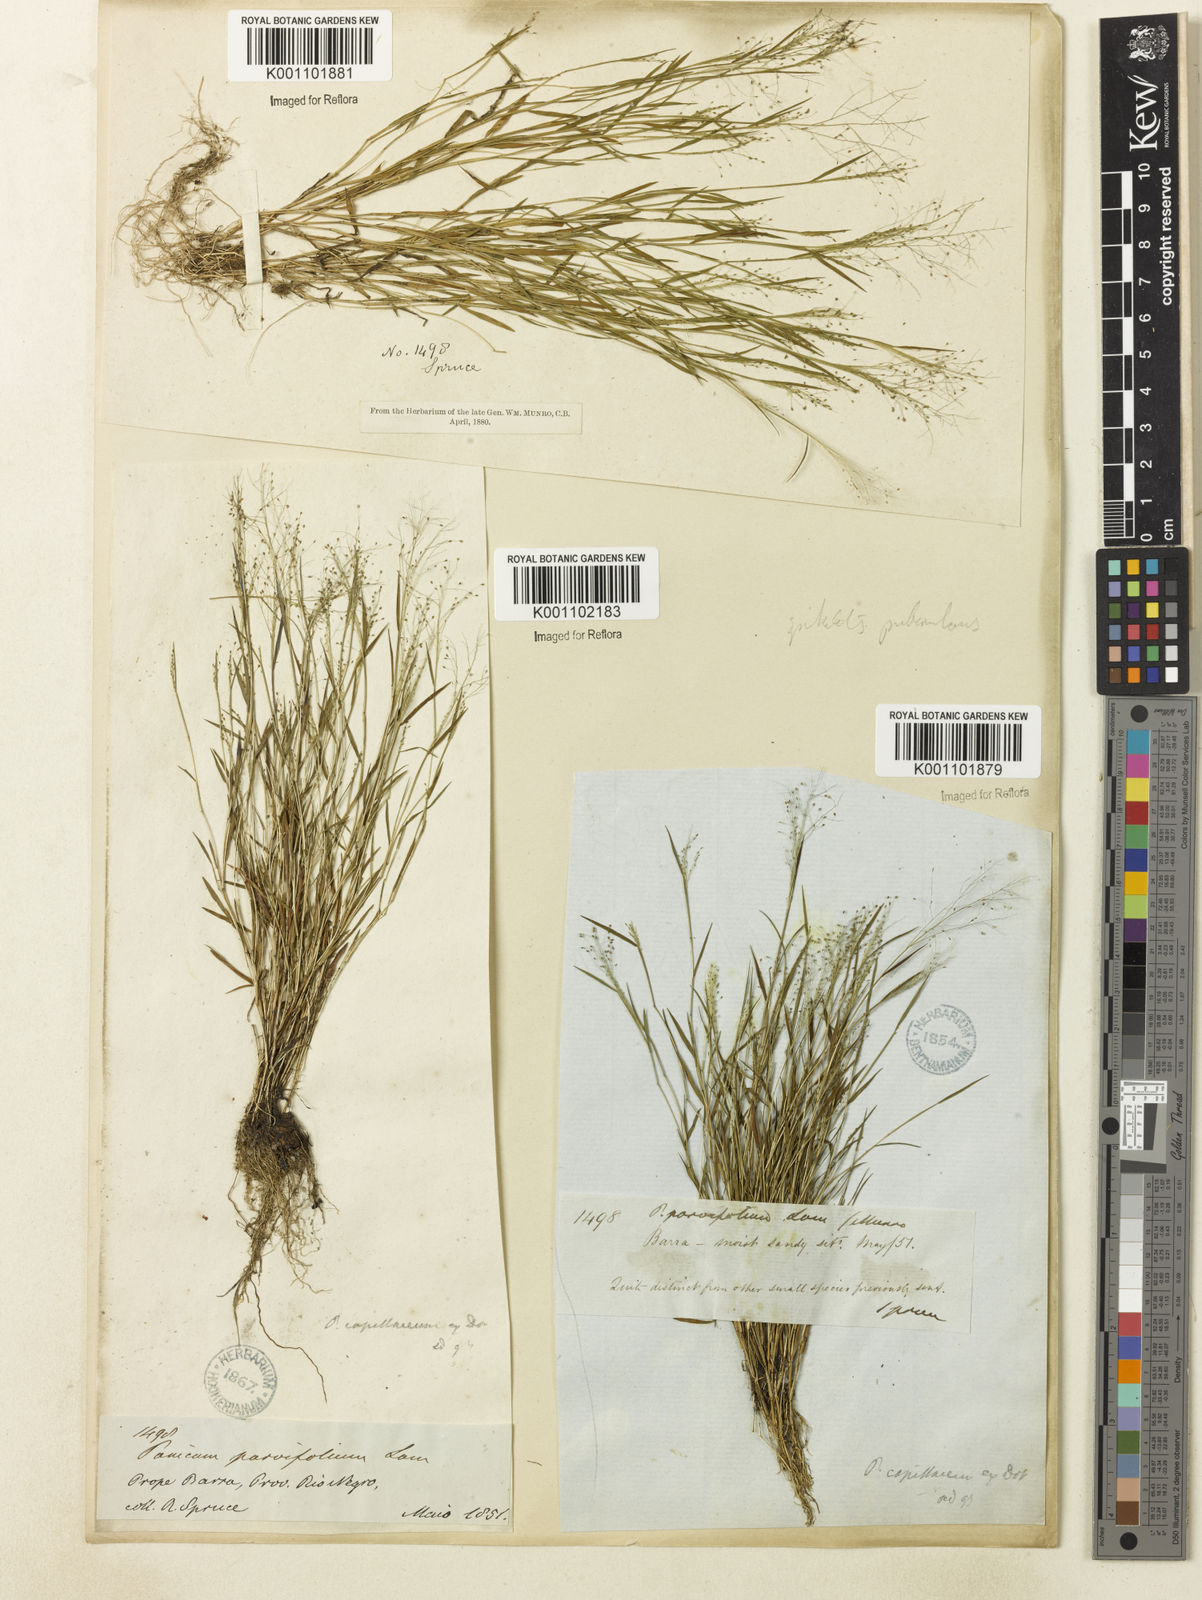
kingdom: Plantae
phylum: Tracheophyta
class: Liliopsida
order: Poales
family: Poaceae
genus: Trichanthecium
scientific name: Trichanthecium polycomum
